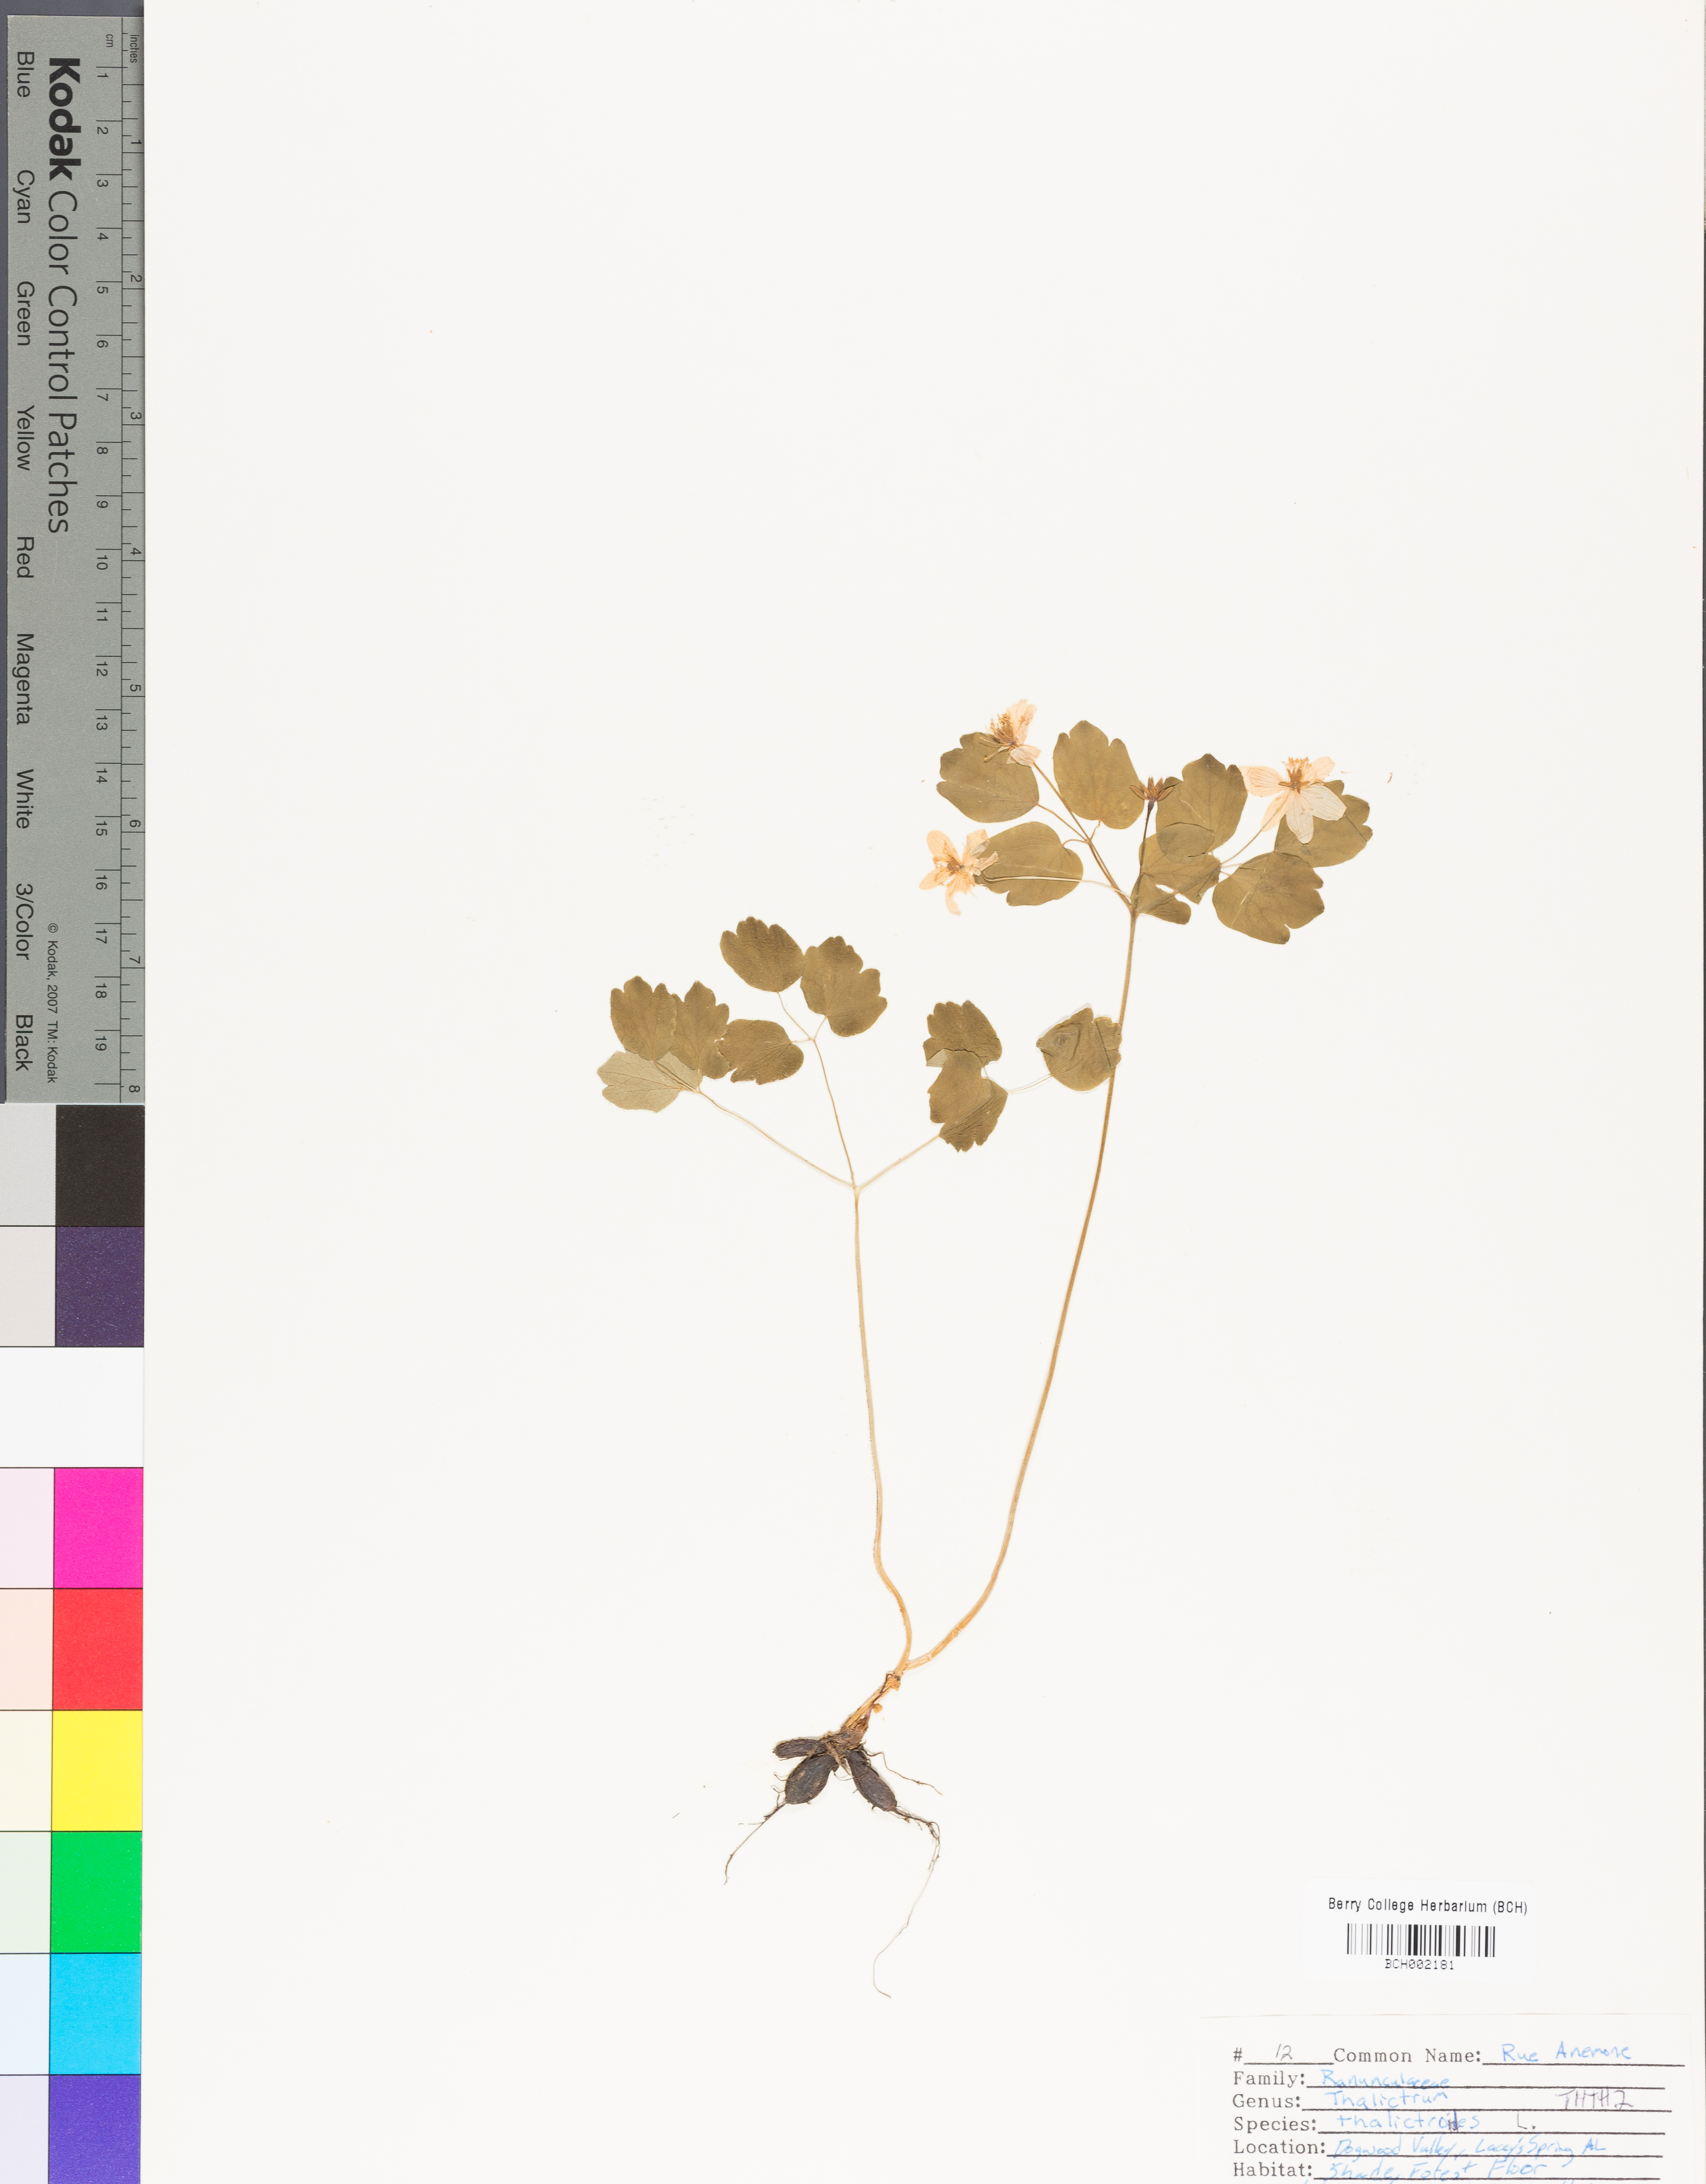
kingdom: Plantae
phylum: Tracheophyta
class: Magnoliopsida
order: Ranunculales
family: Ranunculaceae
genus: Thalictrum
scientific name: Thalictrum thalictroides
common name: Rue-anemone
